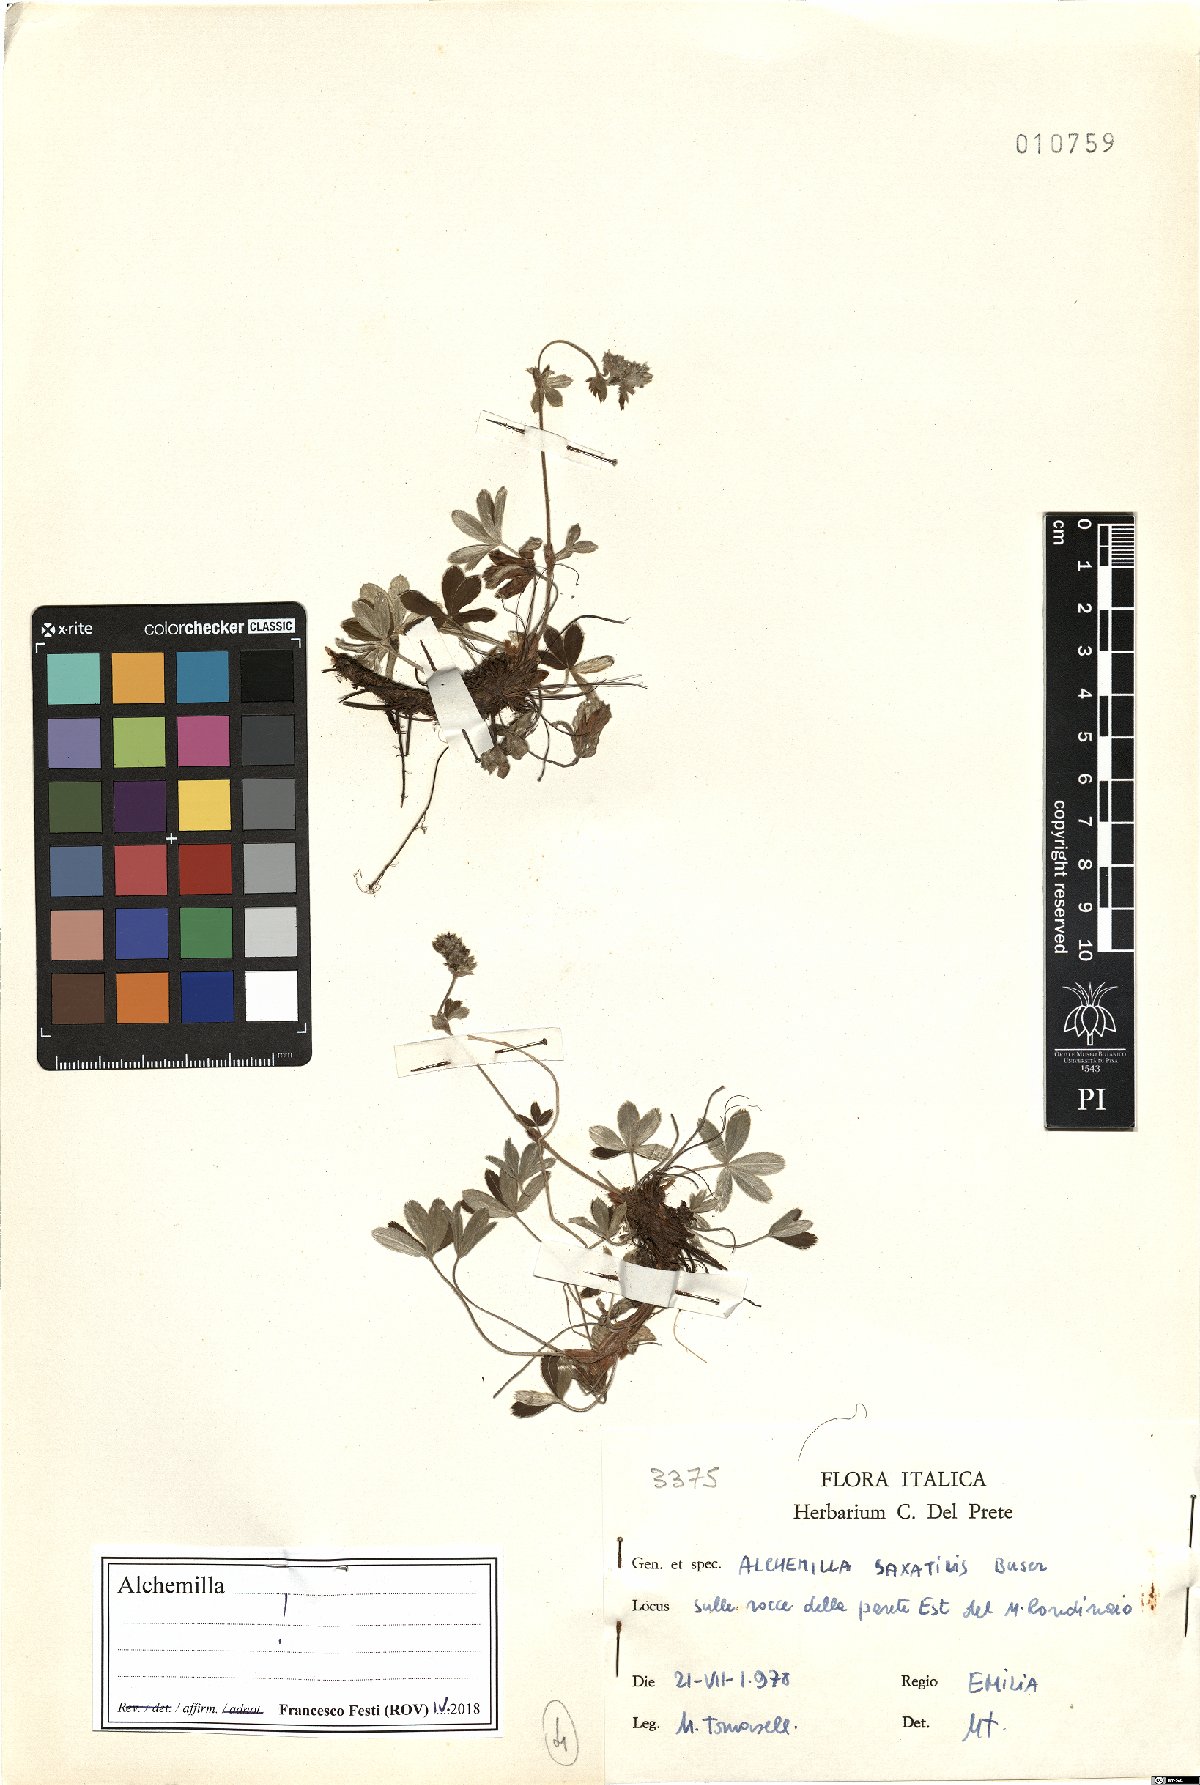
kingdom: Plantae
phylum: Tracheophyta
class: Magnoliopsida
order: Rosales
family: Rosaceae
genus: Alchemilla
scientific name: Alchemilla saxatilis
